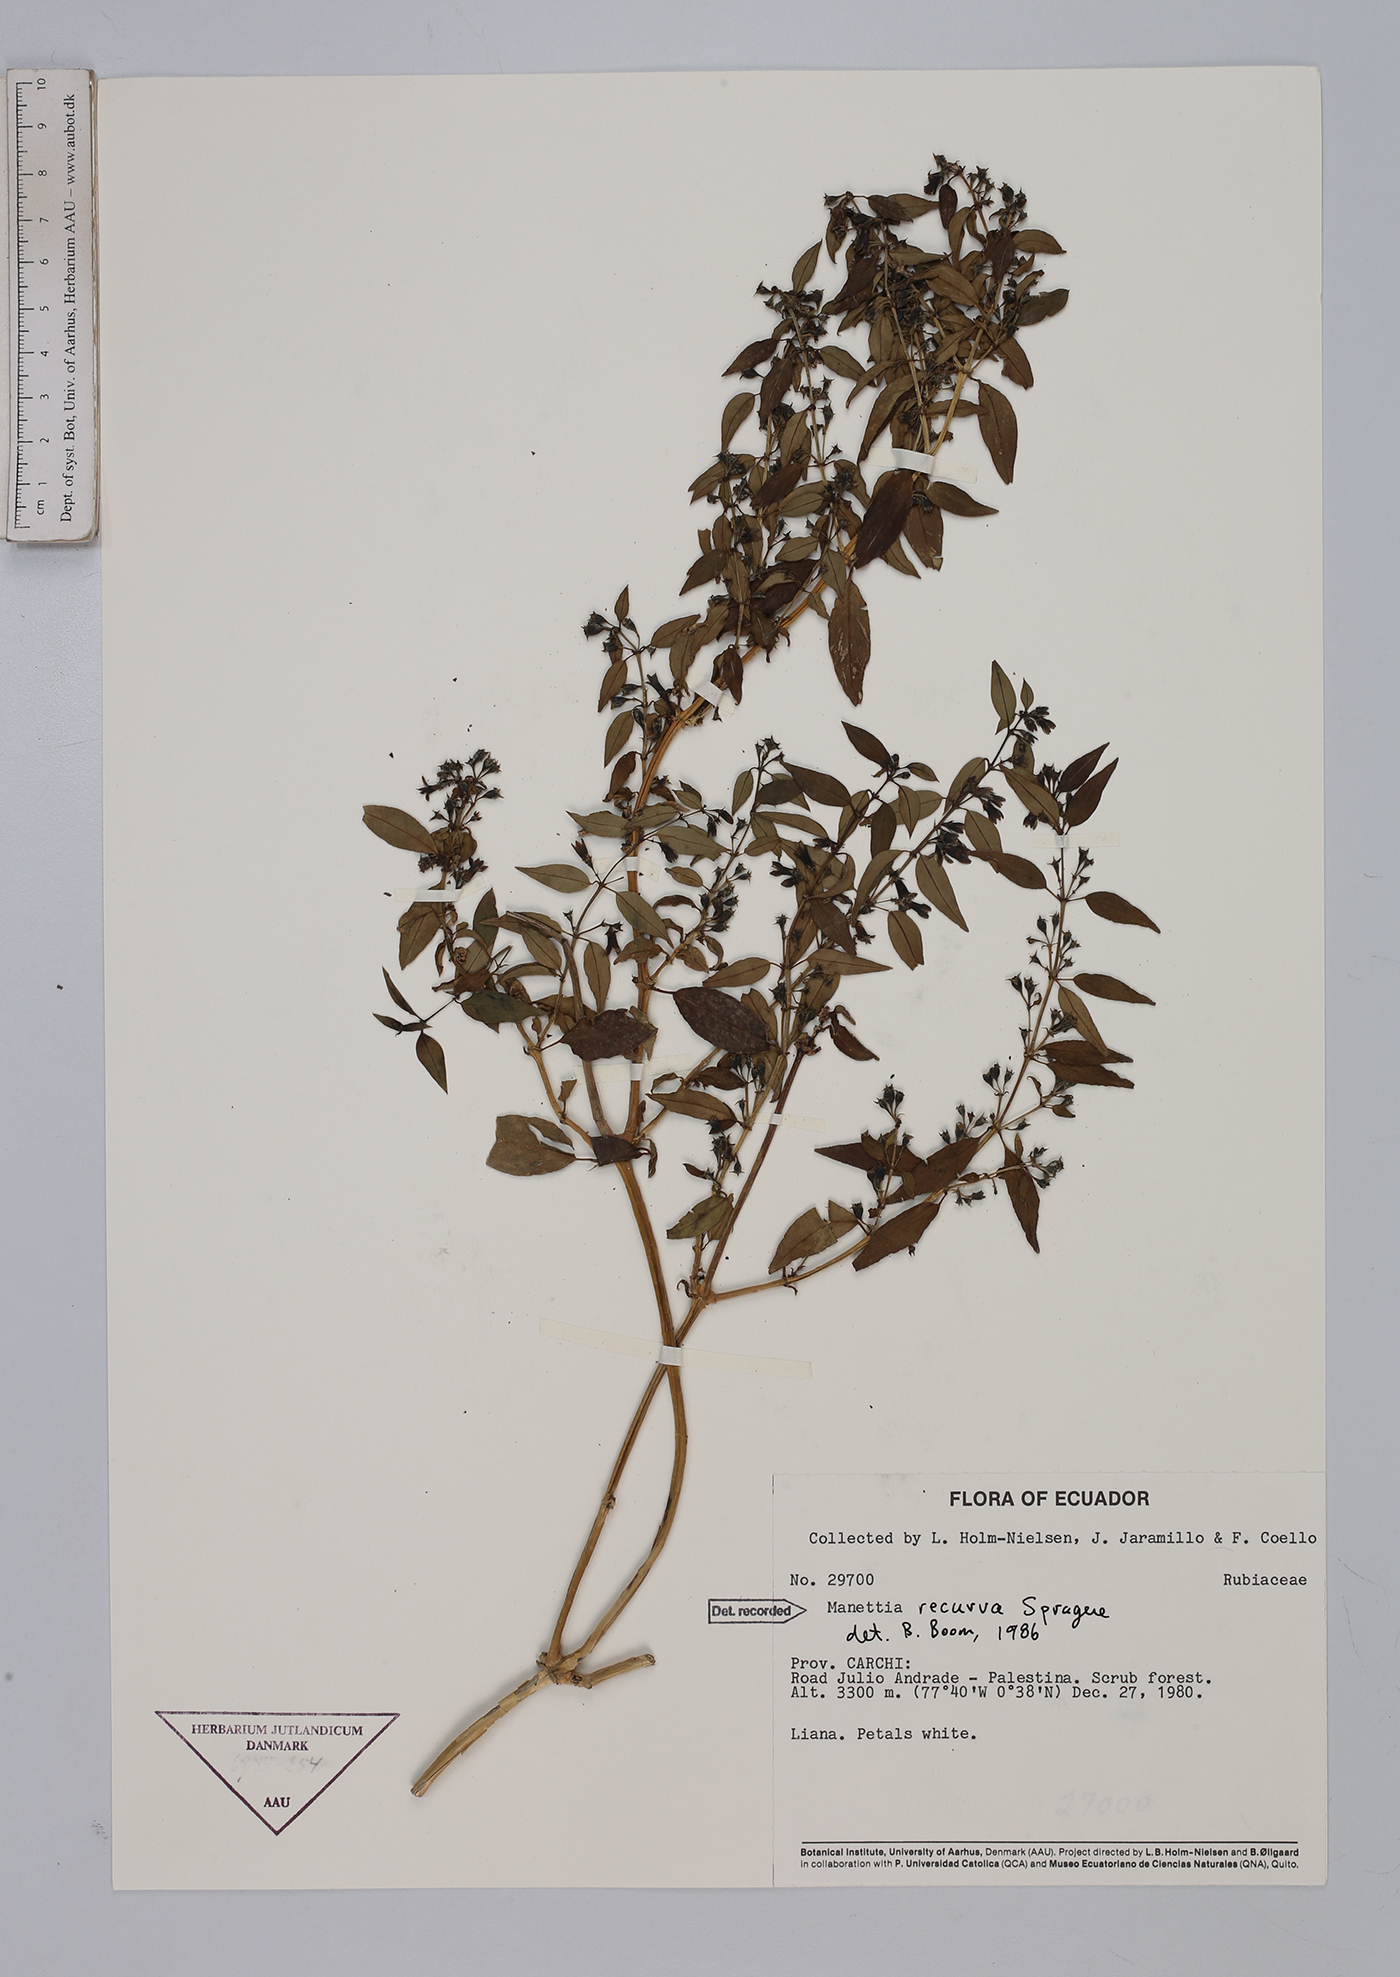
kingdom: Plantae
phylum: Tracheophyta
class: Magnoliopsida
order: Gentianales
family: Rubiaceae
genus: Manettia
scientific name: Manettia recurva
